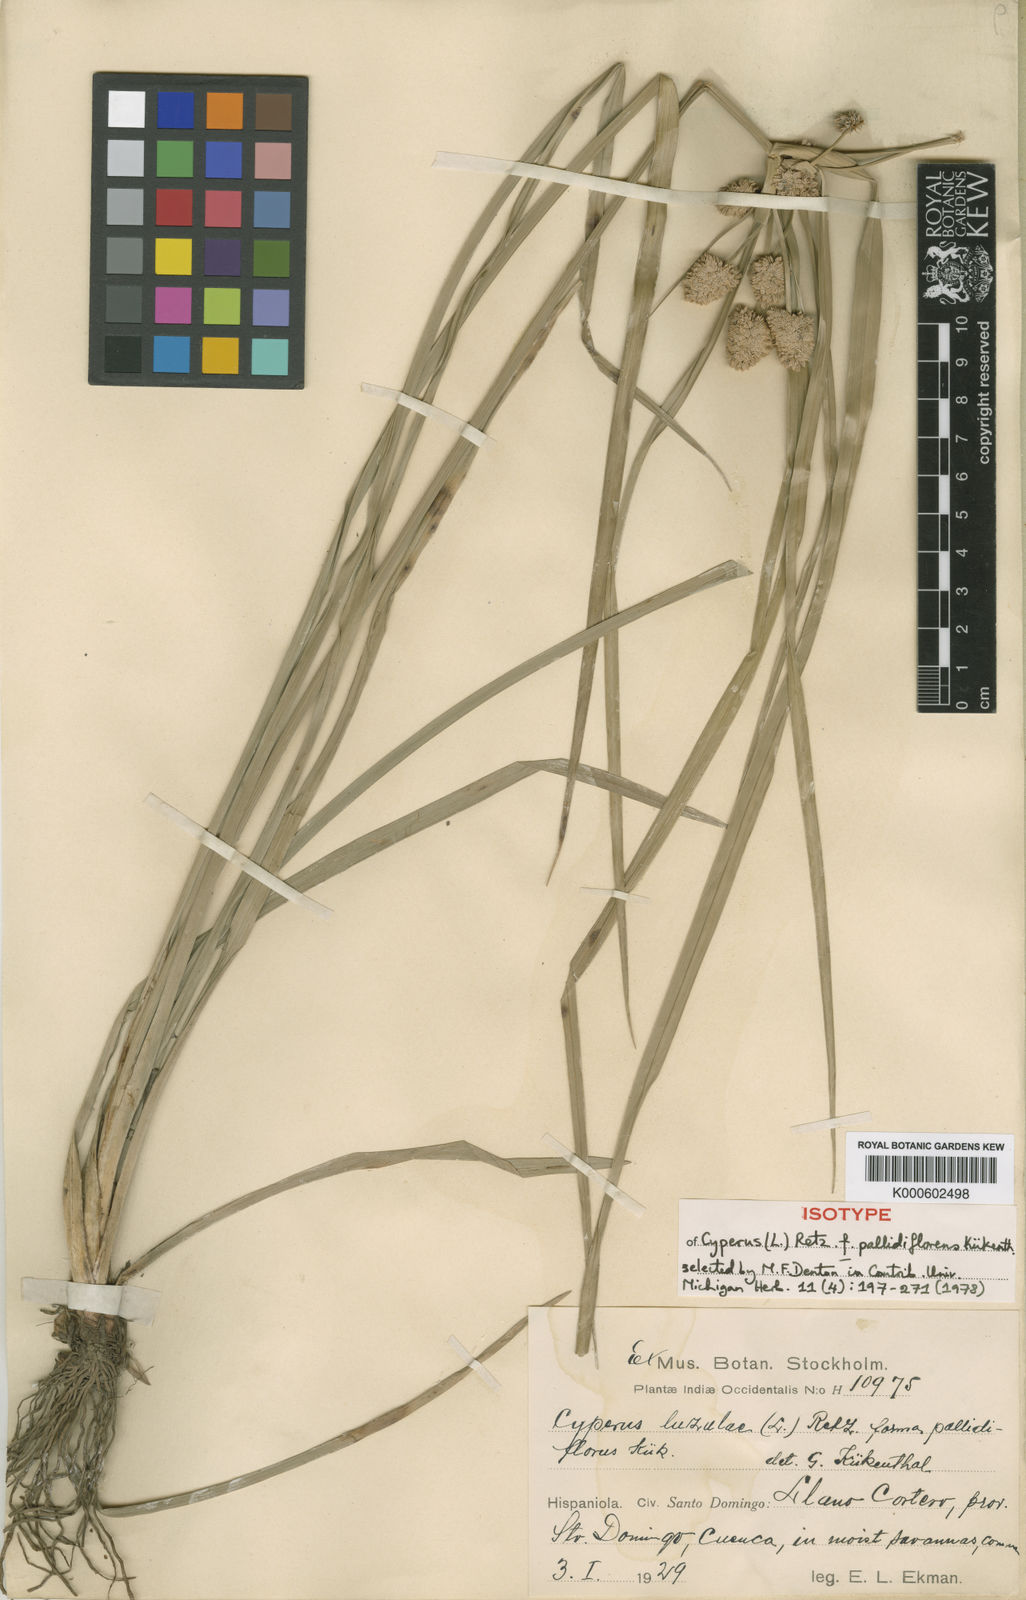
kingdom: Plantae
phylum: Tracheophyta
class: Liliopsida
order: Poales
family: Cyperaceae
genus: Cyperus
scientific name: Cyperus luzulae
